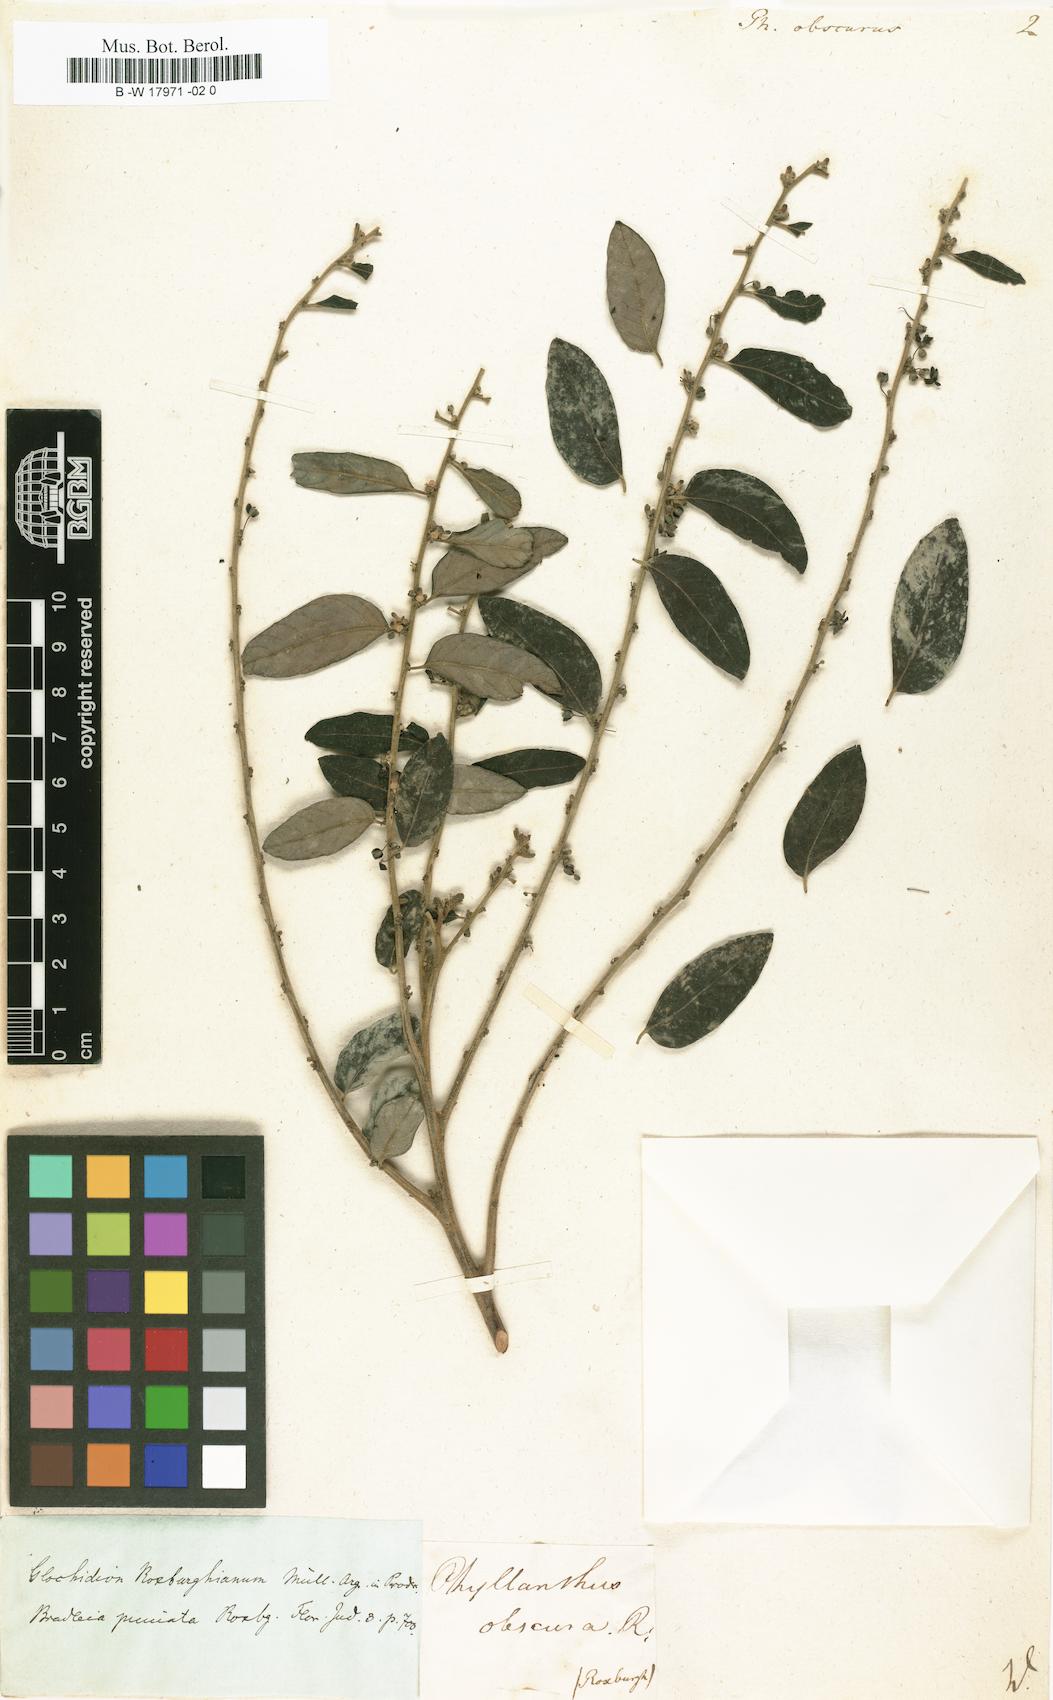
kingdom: Plantae
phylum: Tracheophyta
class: Magnoliopsida
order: Malpighiales
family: Phyllanthaceae
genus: Glochidion
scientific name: Glochidion obscurum
